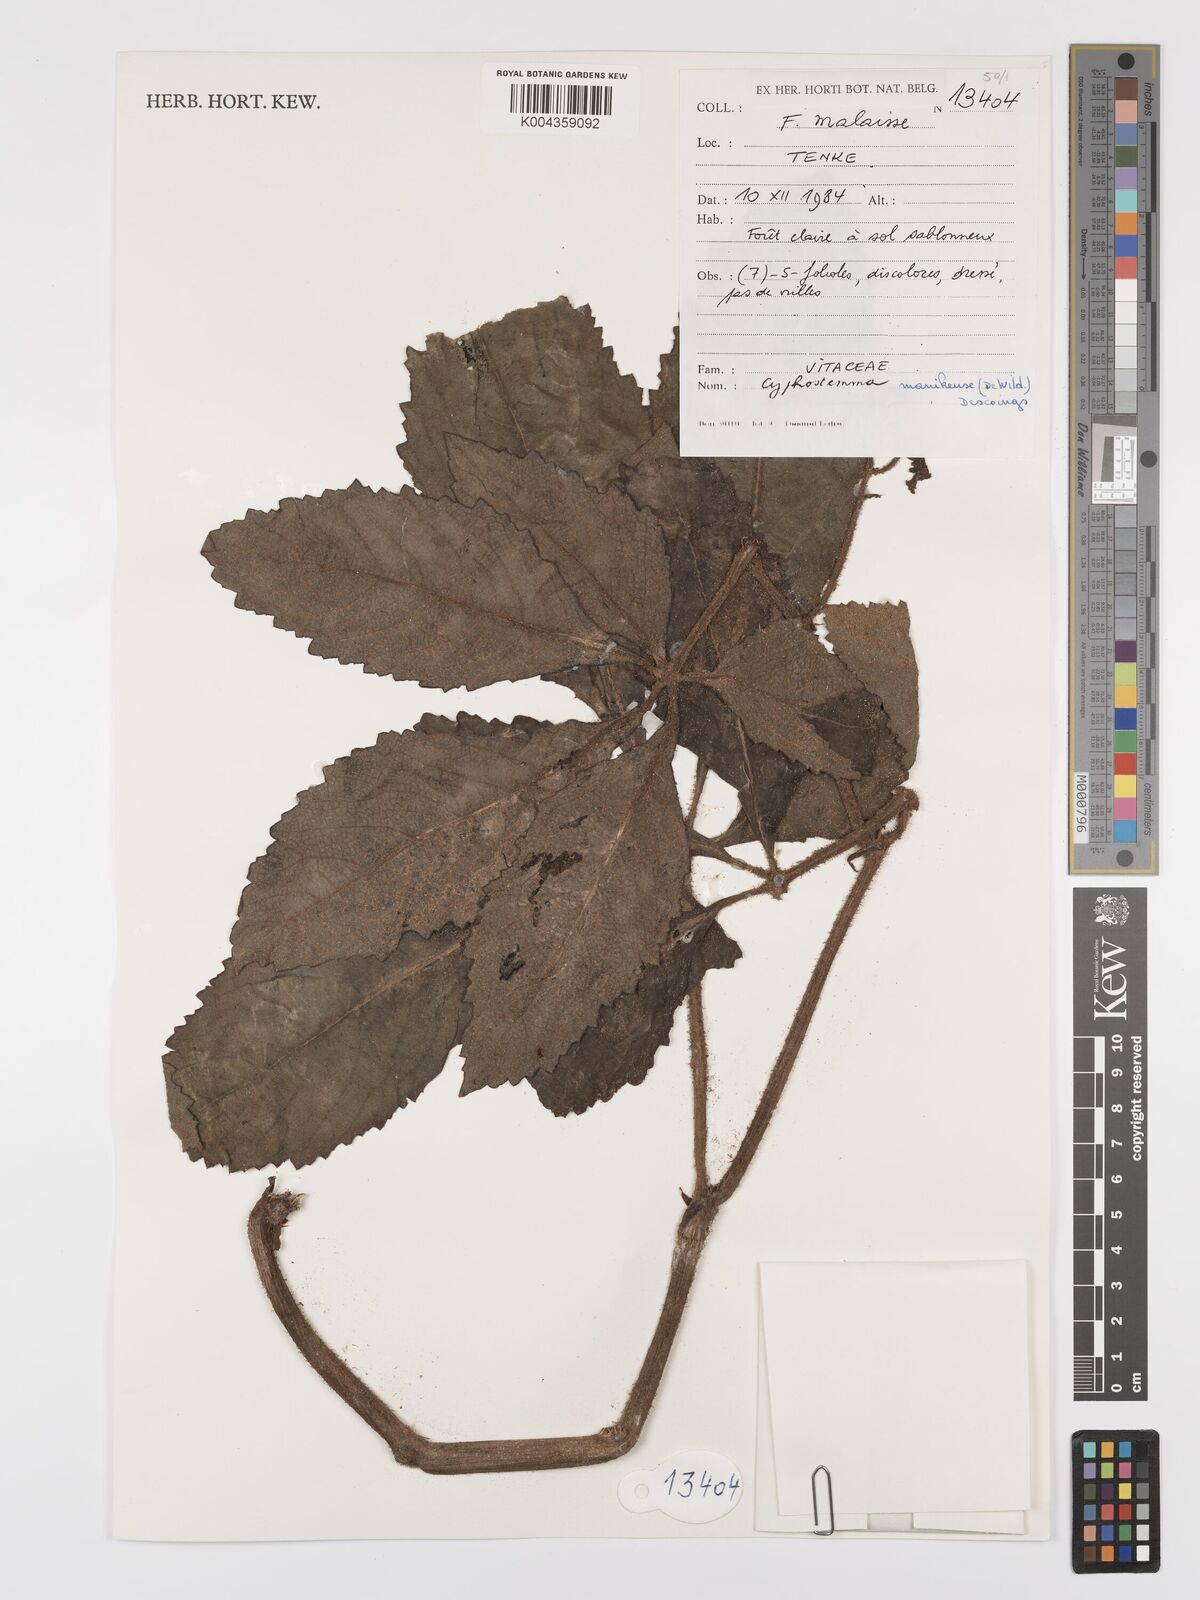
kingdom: Plantae
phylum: Tracheophyta
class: Magnoliopsida
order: Vitales
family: Vitaceae
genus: Cyphostemma
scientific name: Cyphostemma manikense
